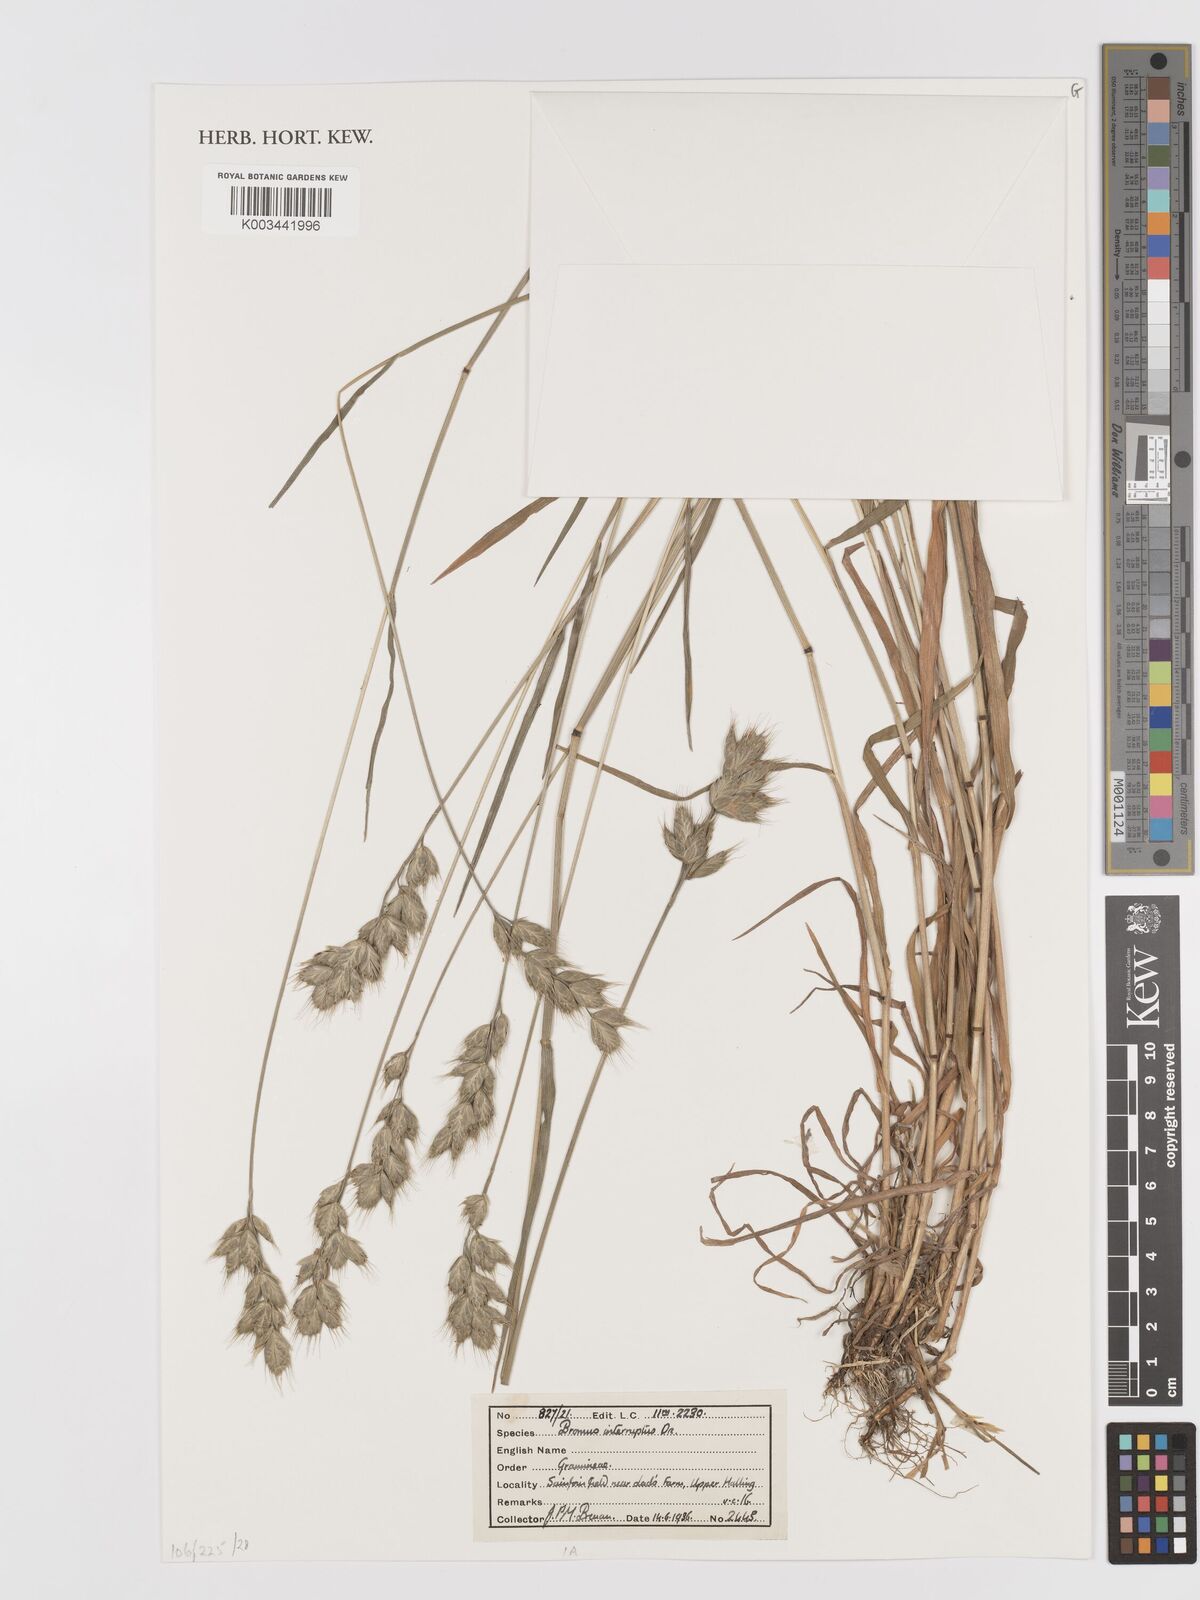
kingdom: Plantae
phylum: Tracheophyta
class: Liliopsida
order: Poales
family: Poaceae
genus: Bromus
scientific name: Bromus interruptus
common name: Interrupted brome
